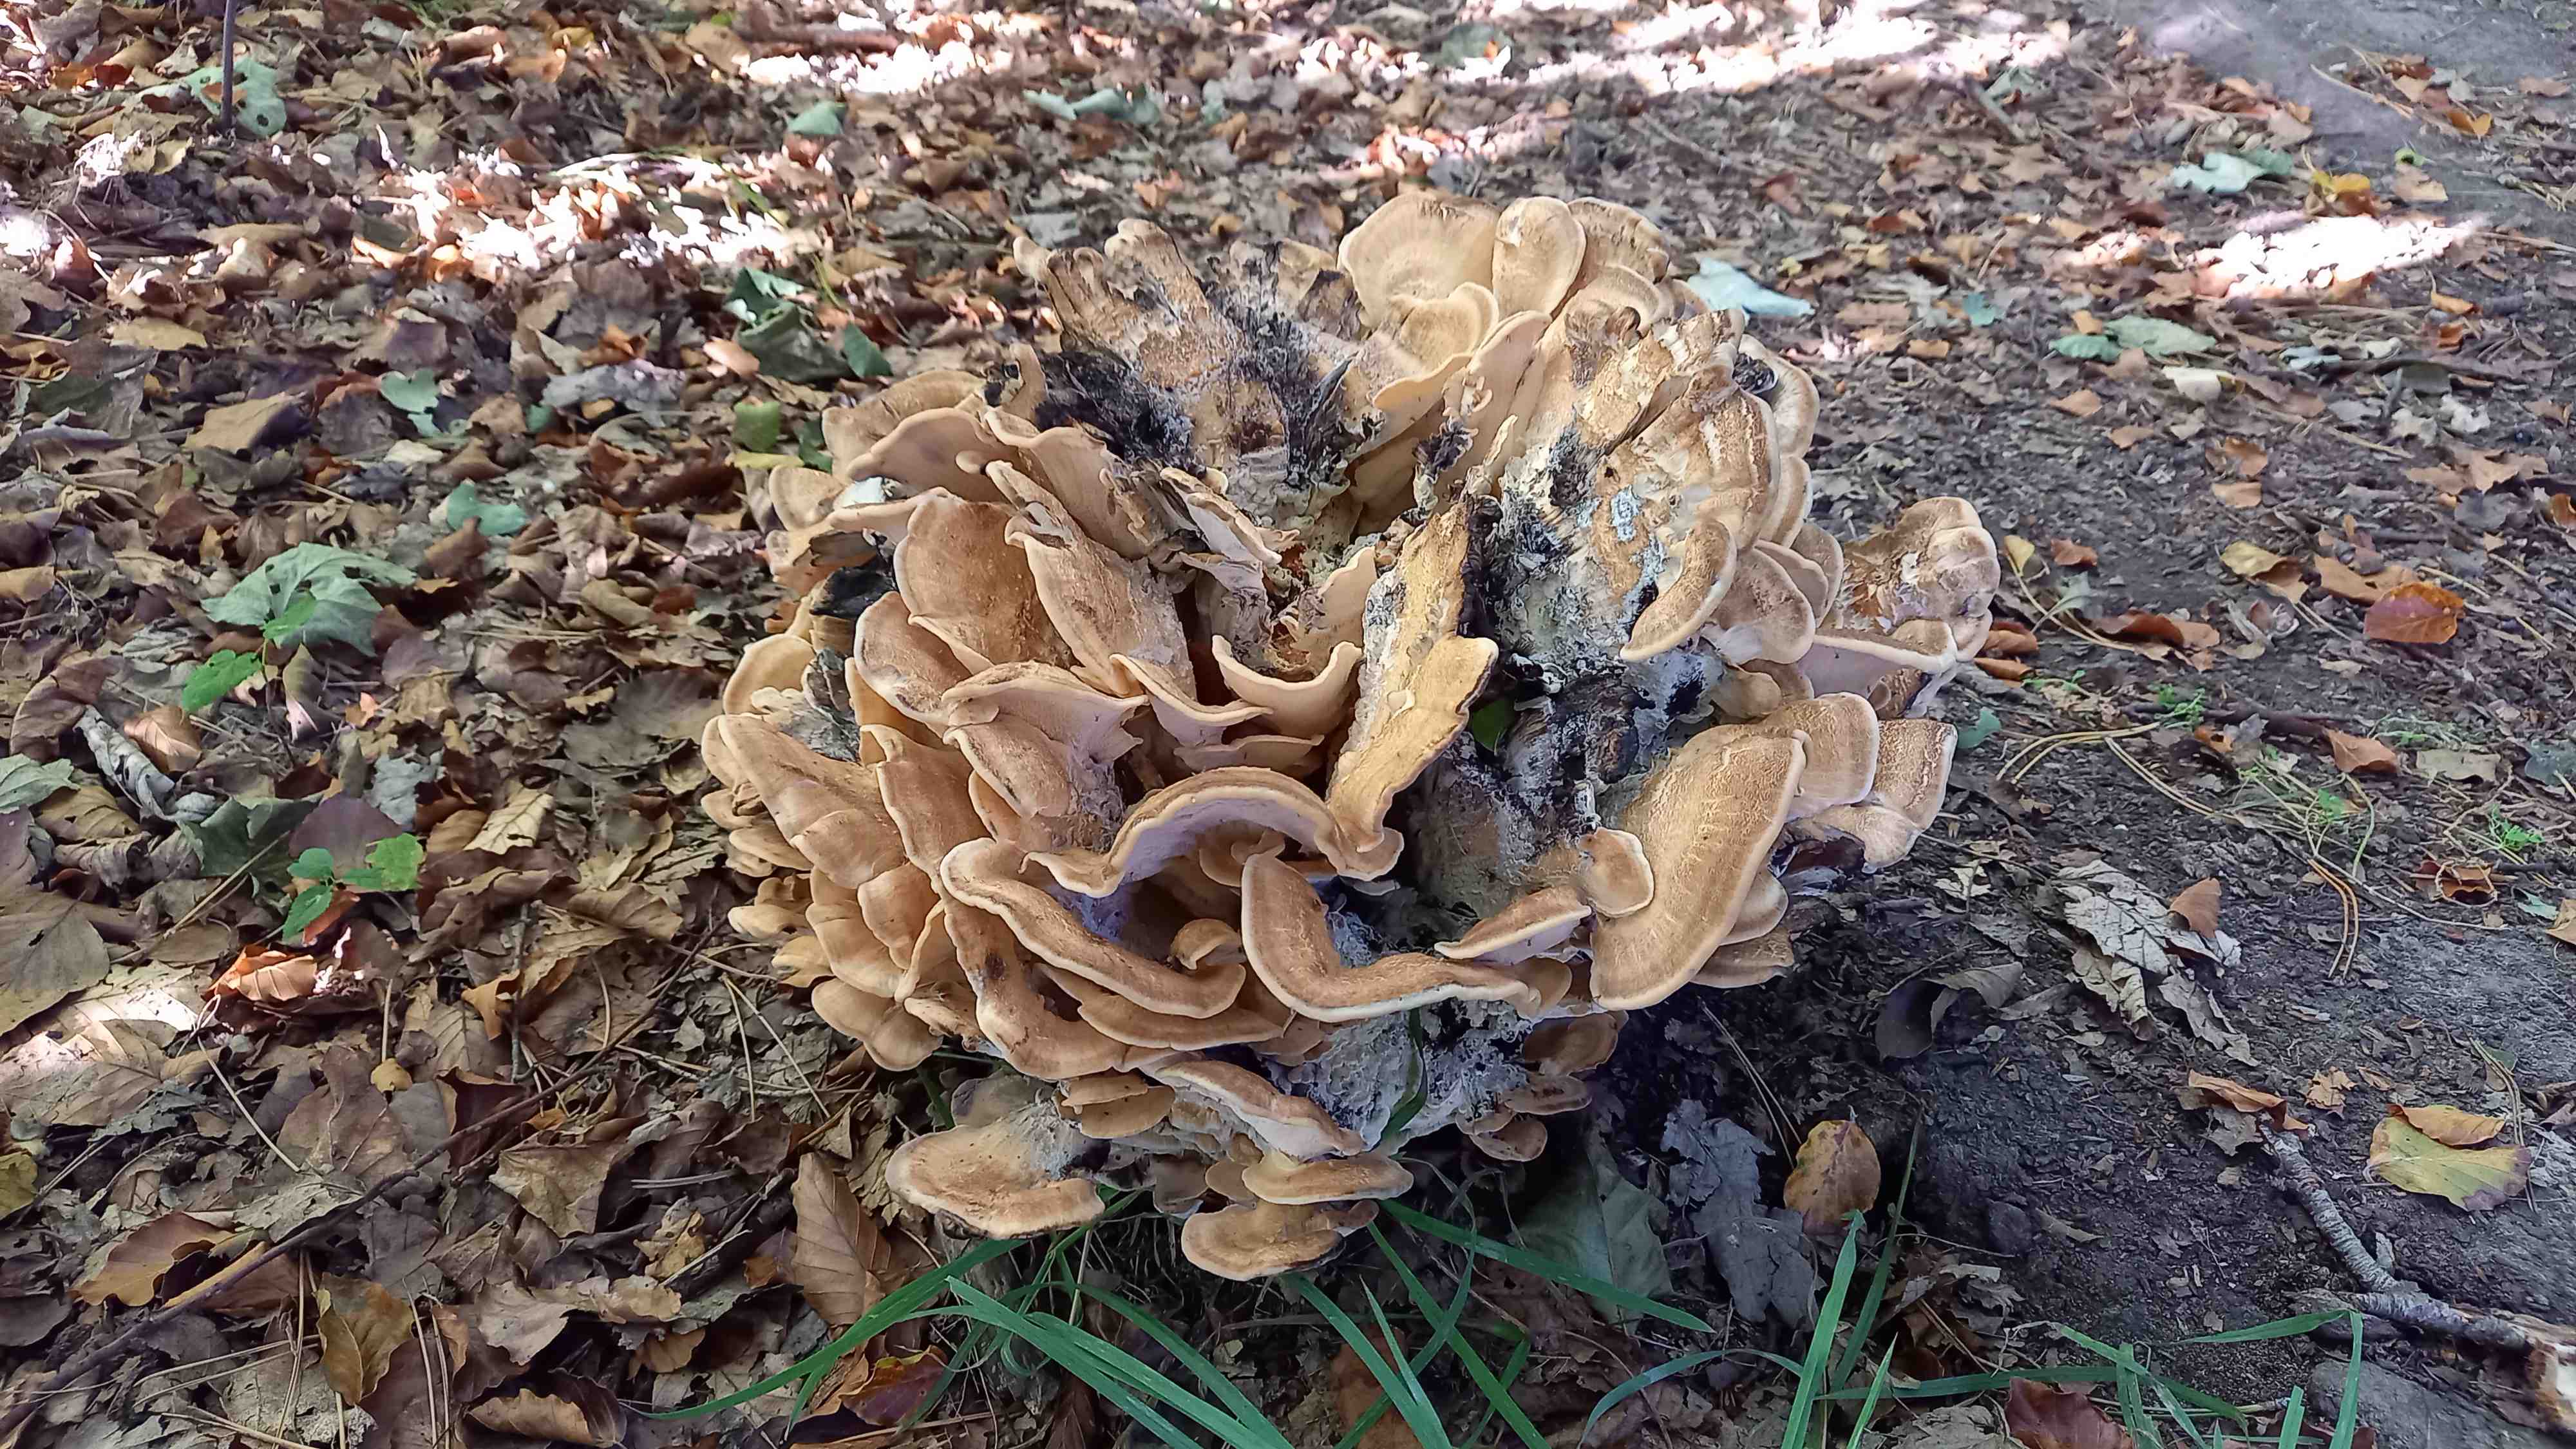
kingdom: Fungi
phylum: Basidiomycota
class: Agaricomycetes
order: Polyporales
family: Meripilaceae
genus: Meripilus
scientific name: Meripilus giganteus
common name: kæmpeporesvamp
